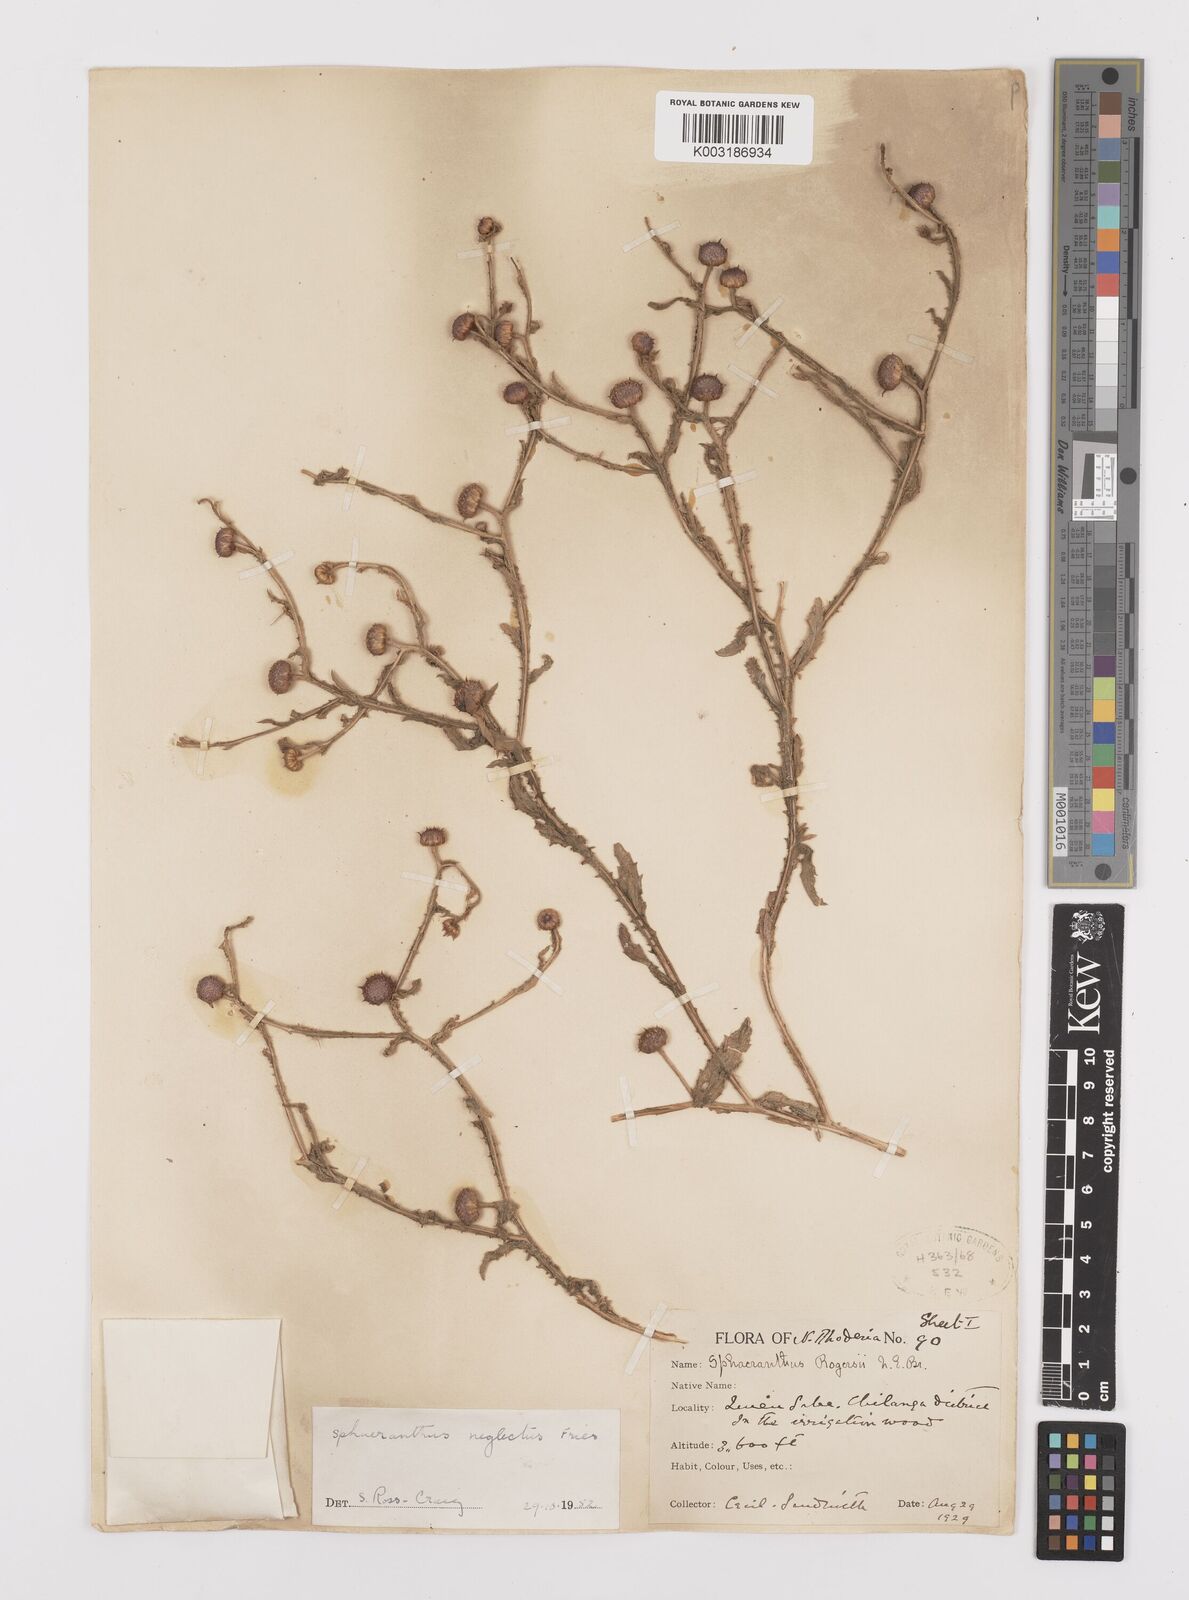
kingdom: Plantae
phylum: Tracheophyta
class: Magnoliopsida
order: Asterales
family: Asteraceae
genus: Sphaeranthus
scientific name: Sphaeranthus neglectus
